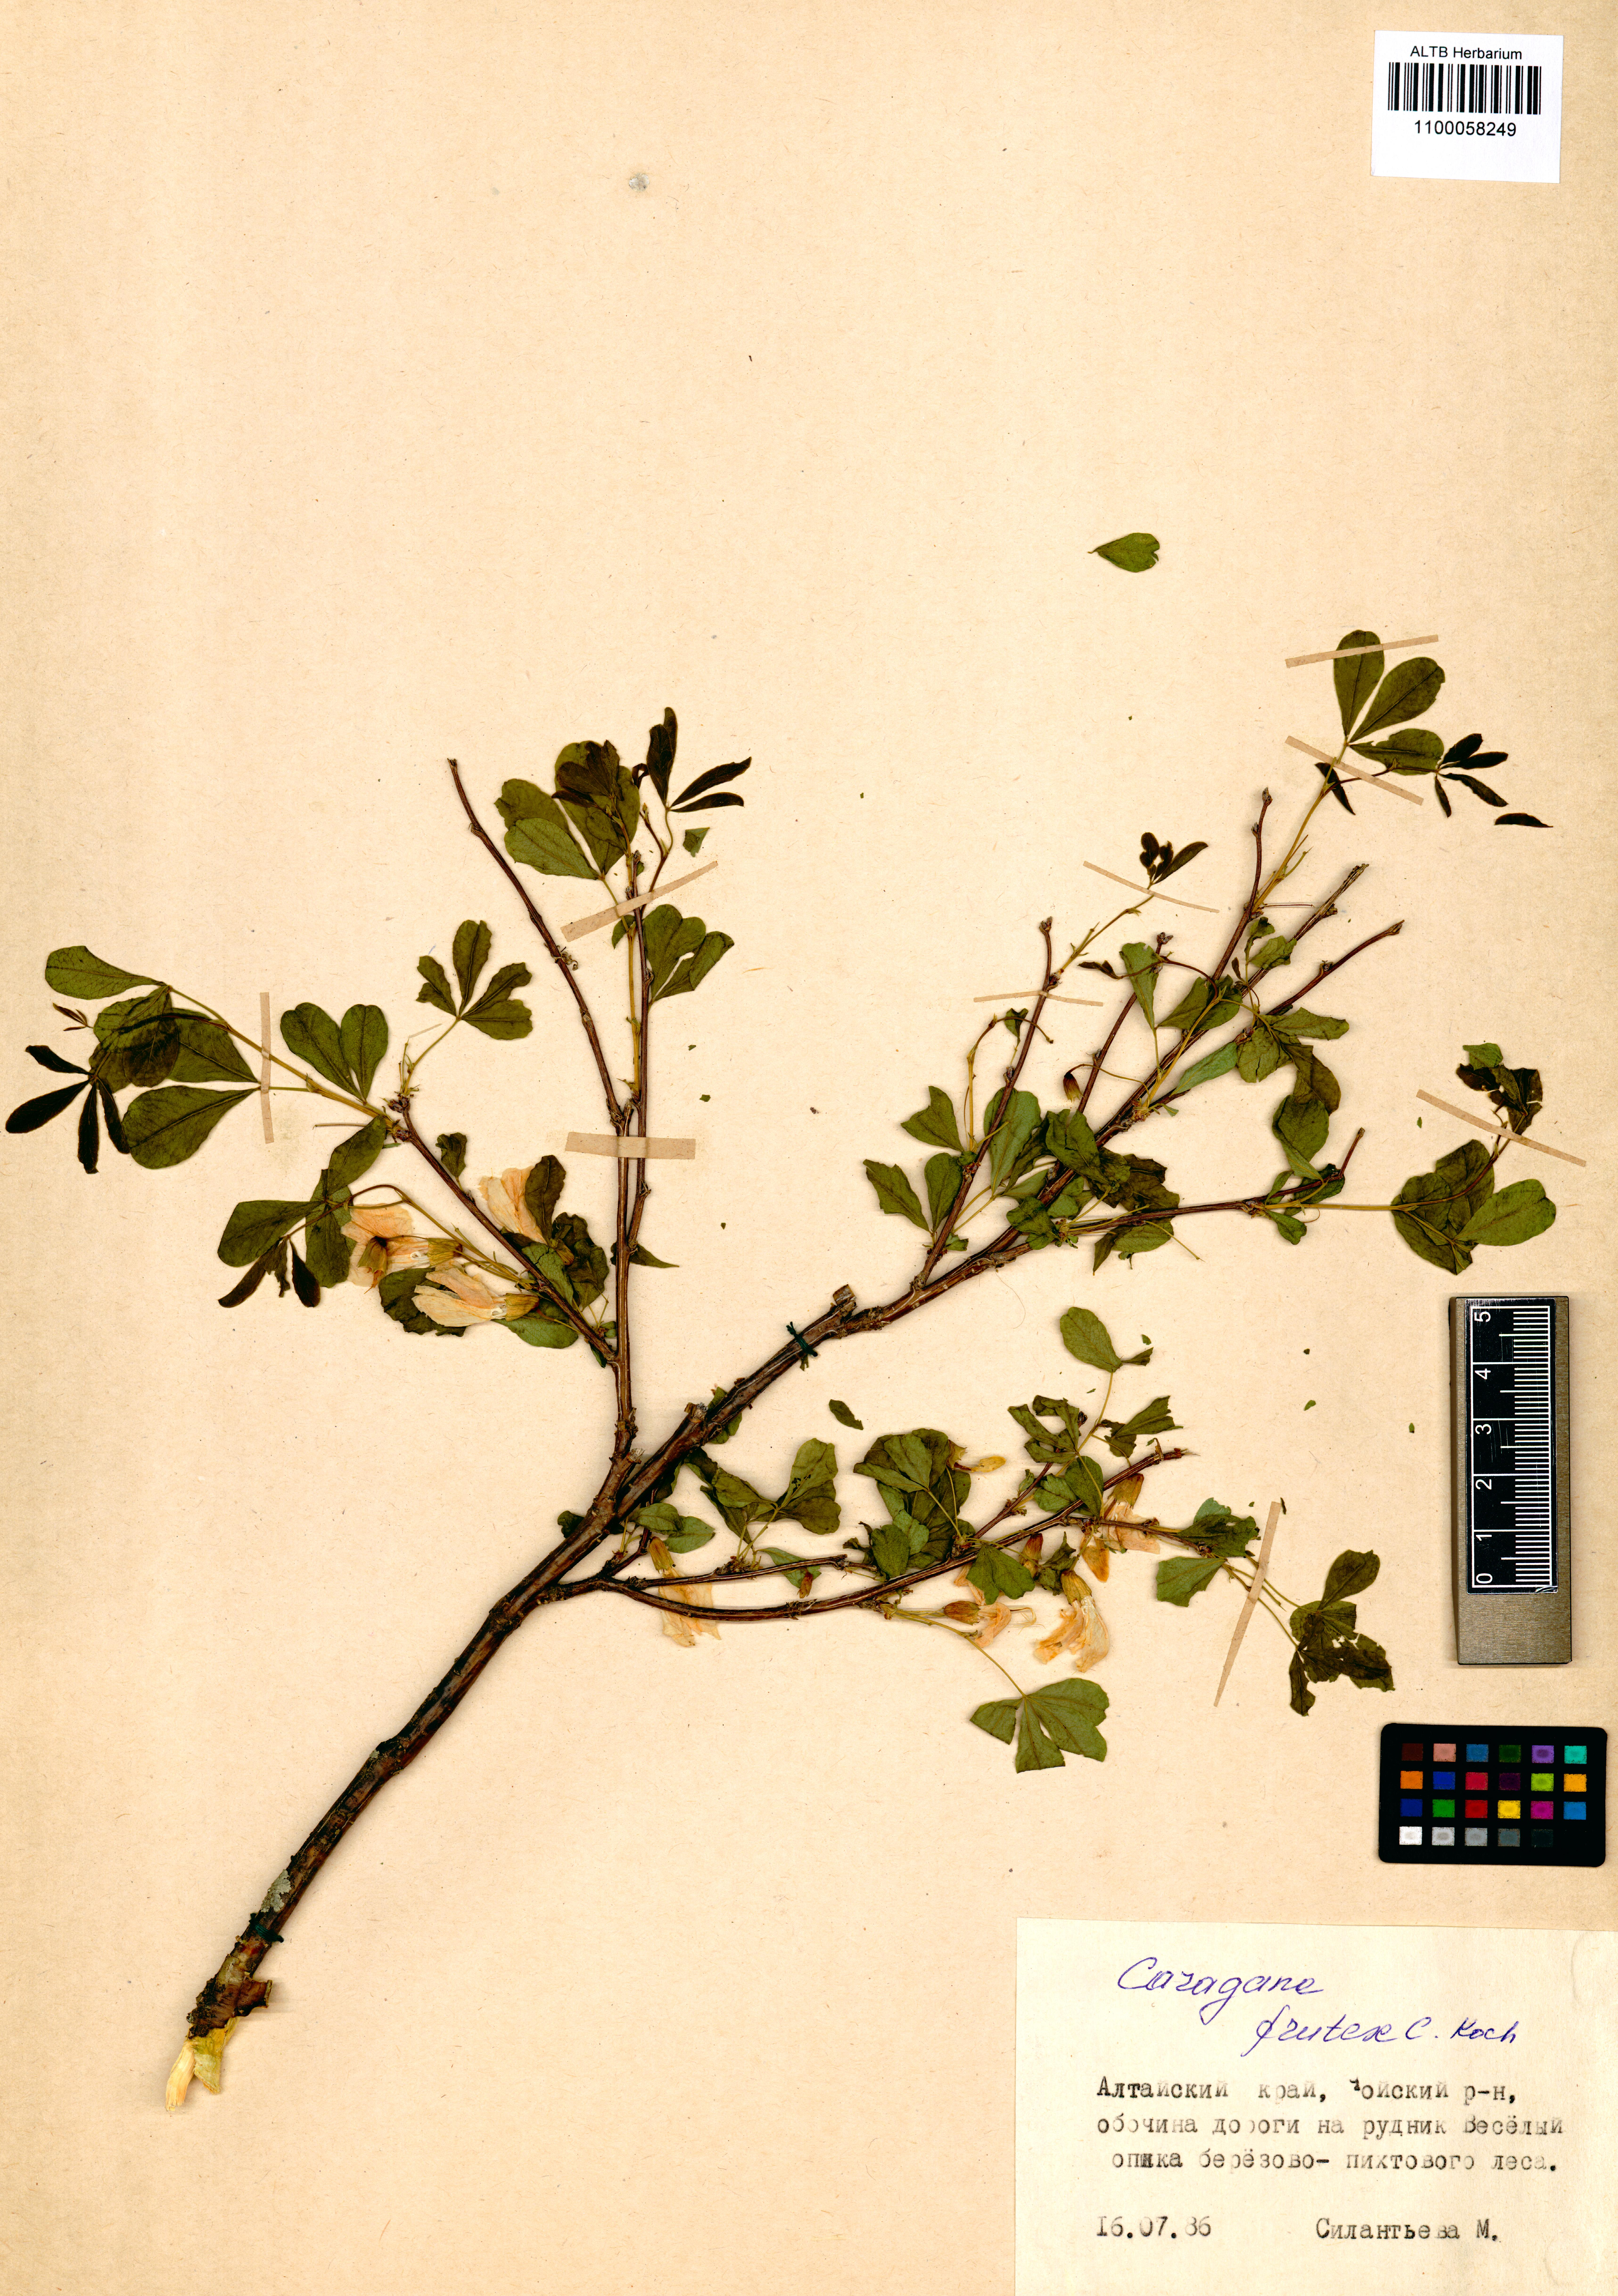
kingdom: Plantae
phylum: Tracheophyta
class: Magnoliopsida
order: Fabales
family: Fabaceae
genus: Caragana
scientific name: Caragana frutex
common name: Russian peashrub
